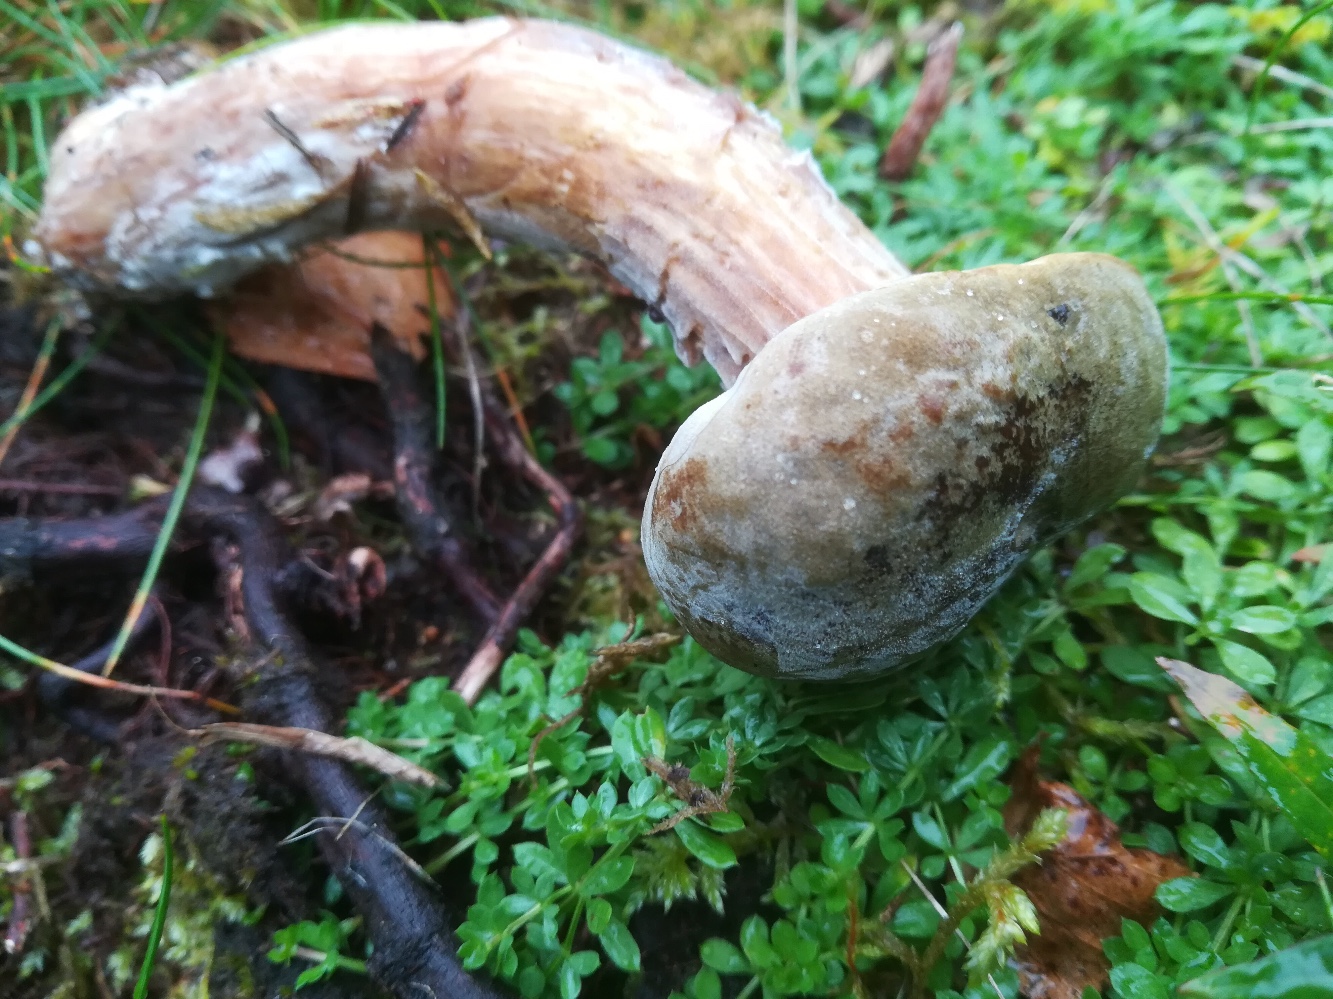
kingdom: Fungi
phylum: Basidiomycota
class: Agaricomycetes
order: Boletales
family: Boletaceae
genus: Xerocomus
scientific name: Xerocomus
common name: filtrørhat
